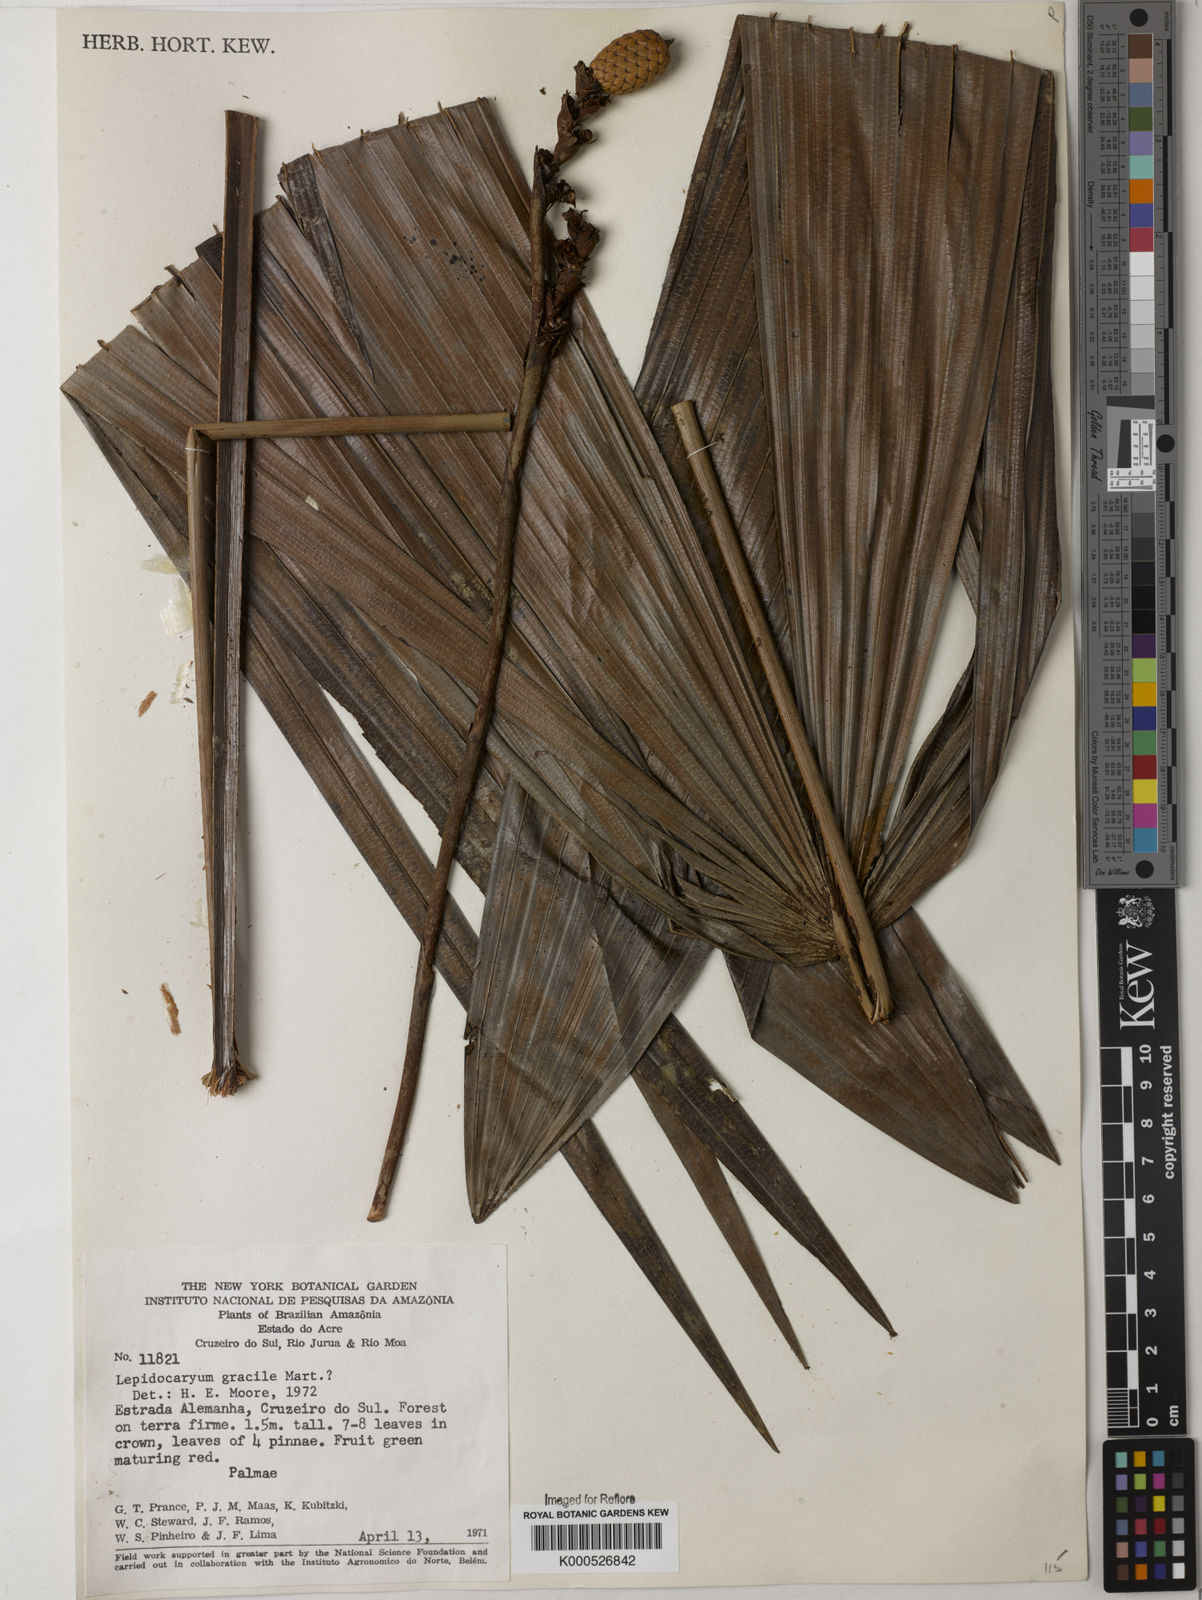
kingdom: Plantae
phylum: Tracheophyta
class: Liliopsida
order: Arecales
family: Arecaceae
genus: Lepidocaryum
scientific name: Lepidocaryum
